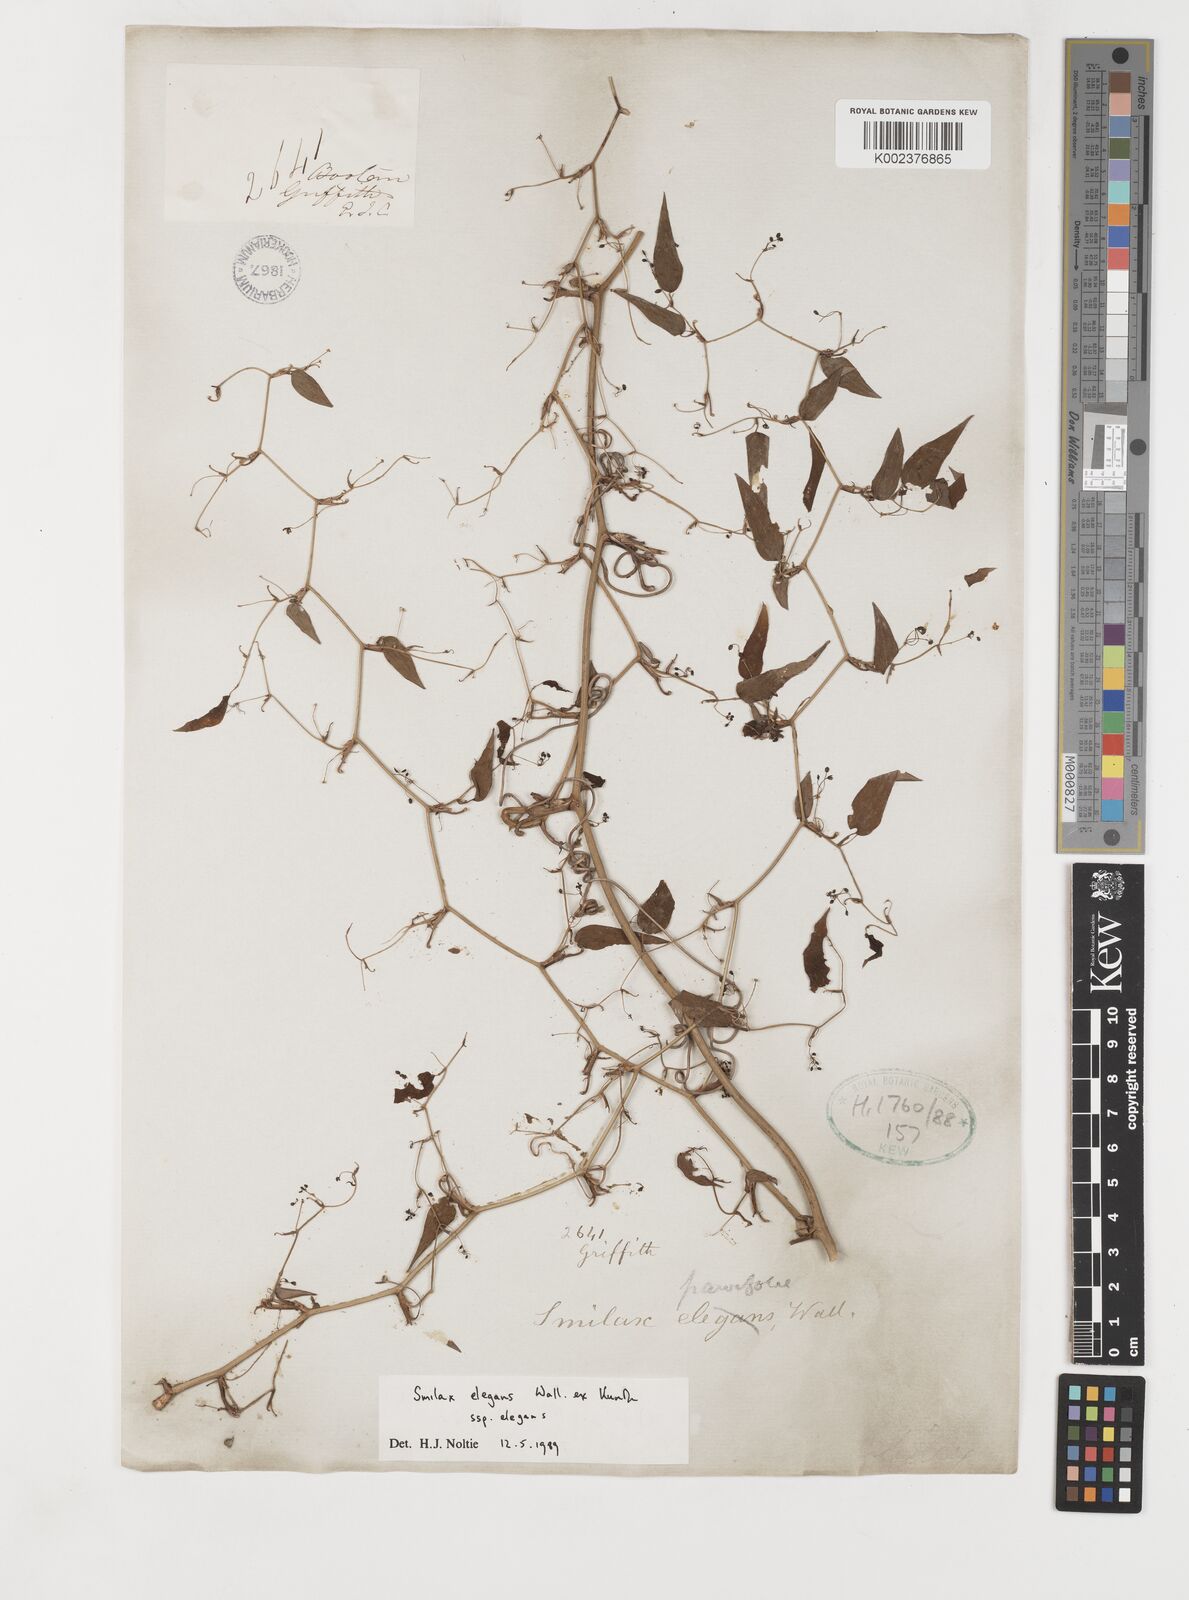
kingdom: Plantae
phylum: Tracheophyta
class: Liliopsida
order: Liliales
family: Smilacaceae
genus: Smilax
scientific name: Smilax elegans
